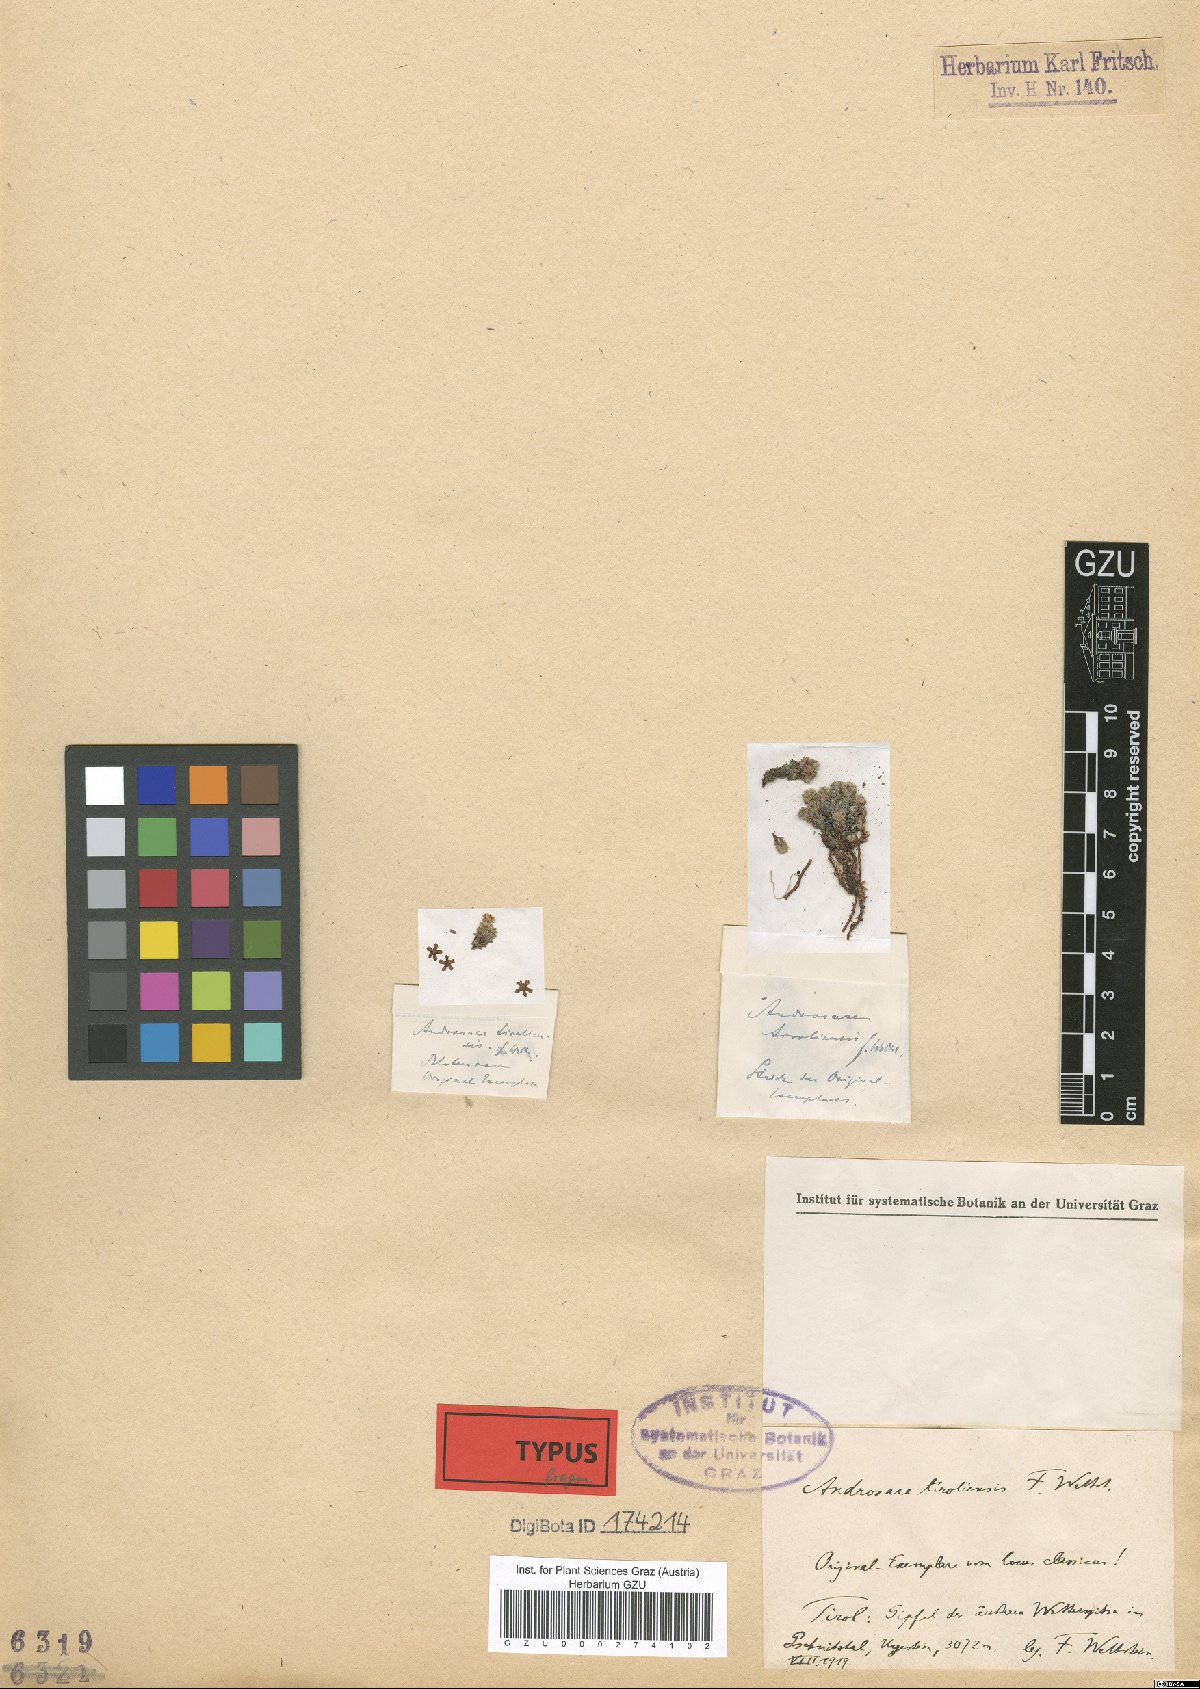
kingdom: Plantae
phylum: Tracheophyta
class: Magnoliopsida
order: Ericales
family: Primulaceae
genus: Androsace
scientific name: Androsace alpina
